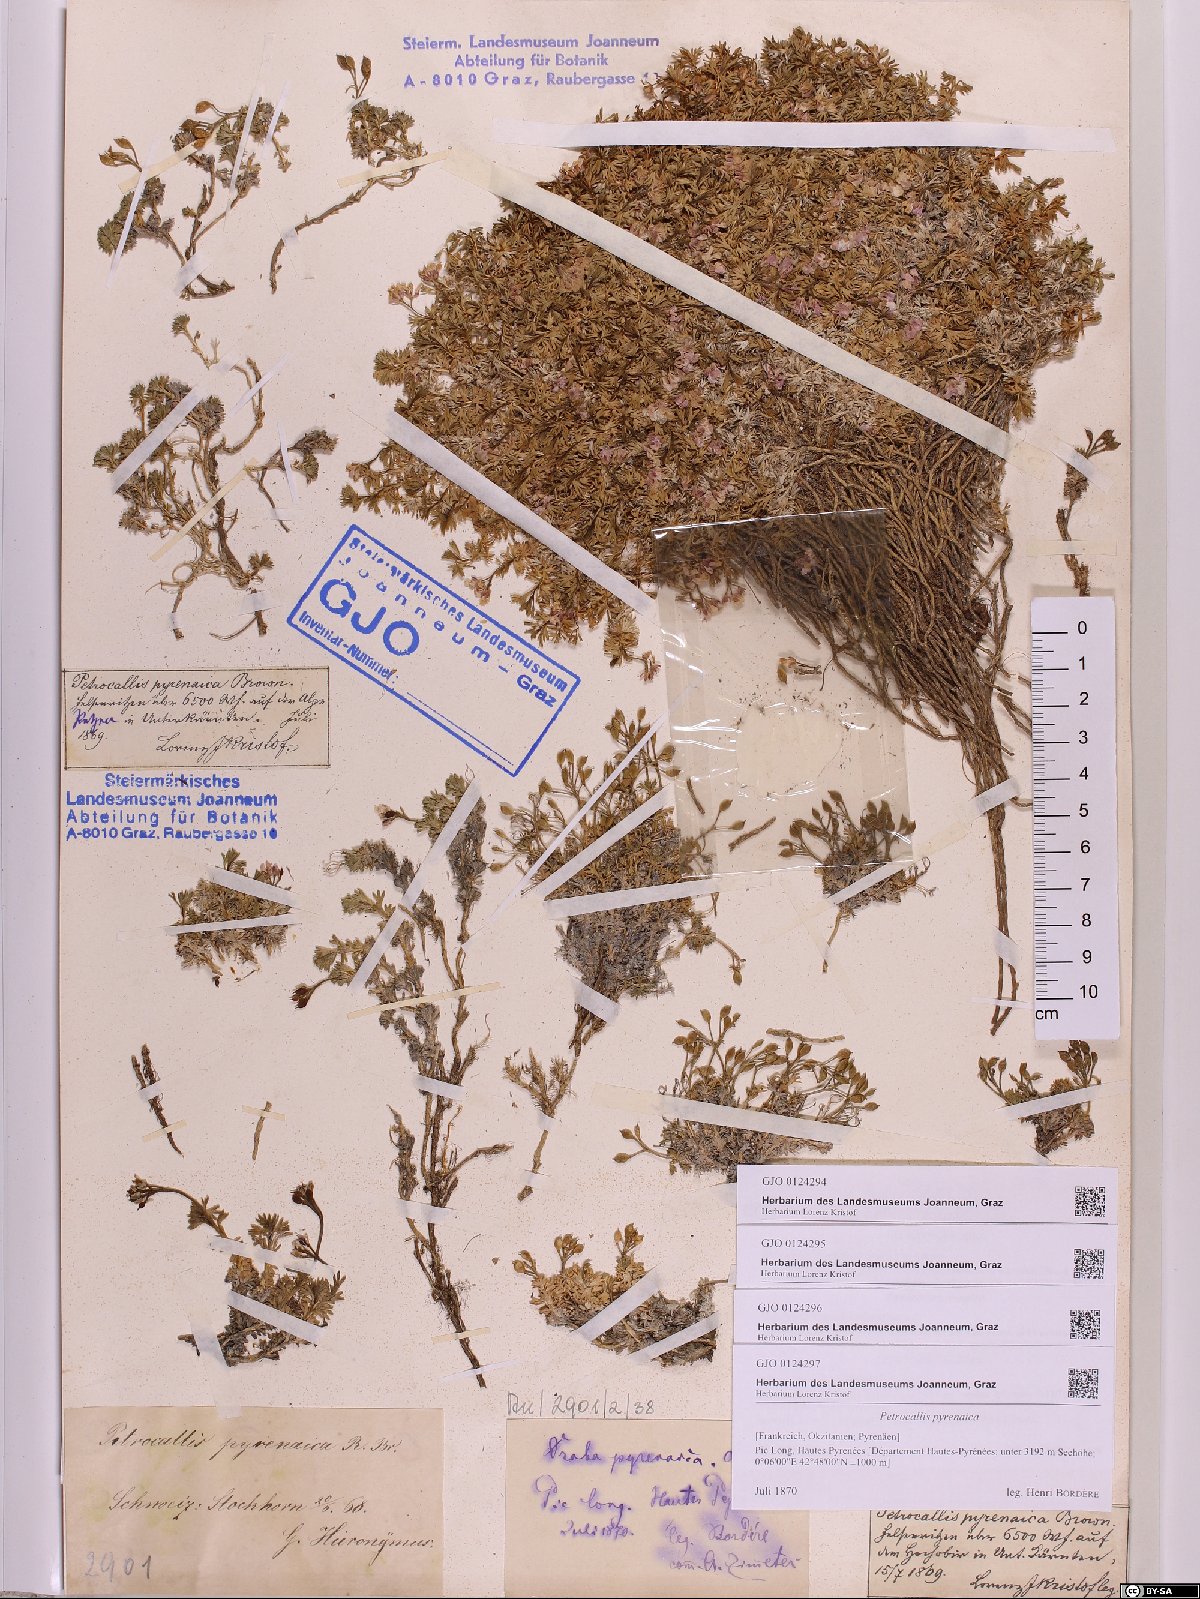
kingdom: Plantae
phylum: Tracheophyta
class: Magnoliopsida
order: Brassicales
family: Brassicaceae
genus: Petrocallis
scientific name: Petrocallis pyrenaica
